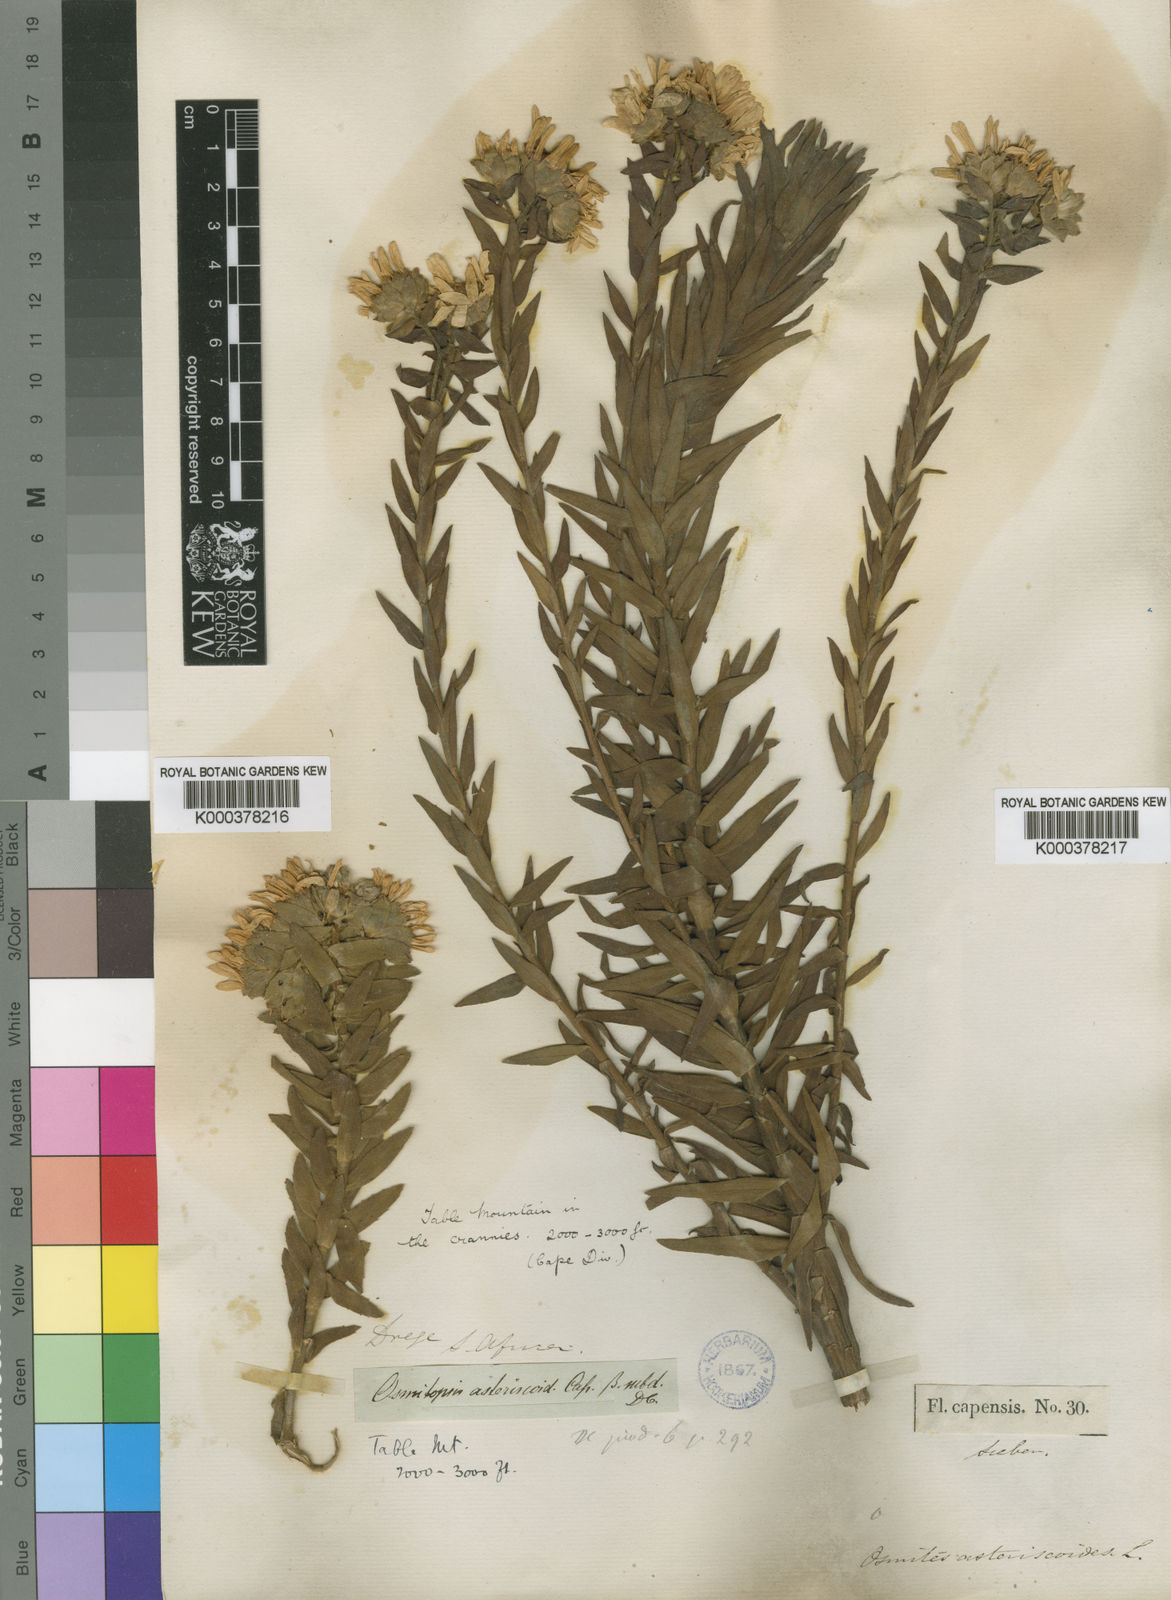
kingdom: Plantae
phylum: Tracheophyta
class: Magnoliopsida
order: Asterales
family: Asteraceae
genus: Osmitopsis
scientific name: Osmitopsis asteriscoides
